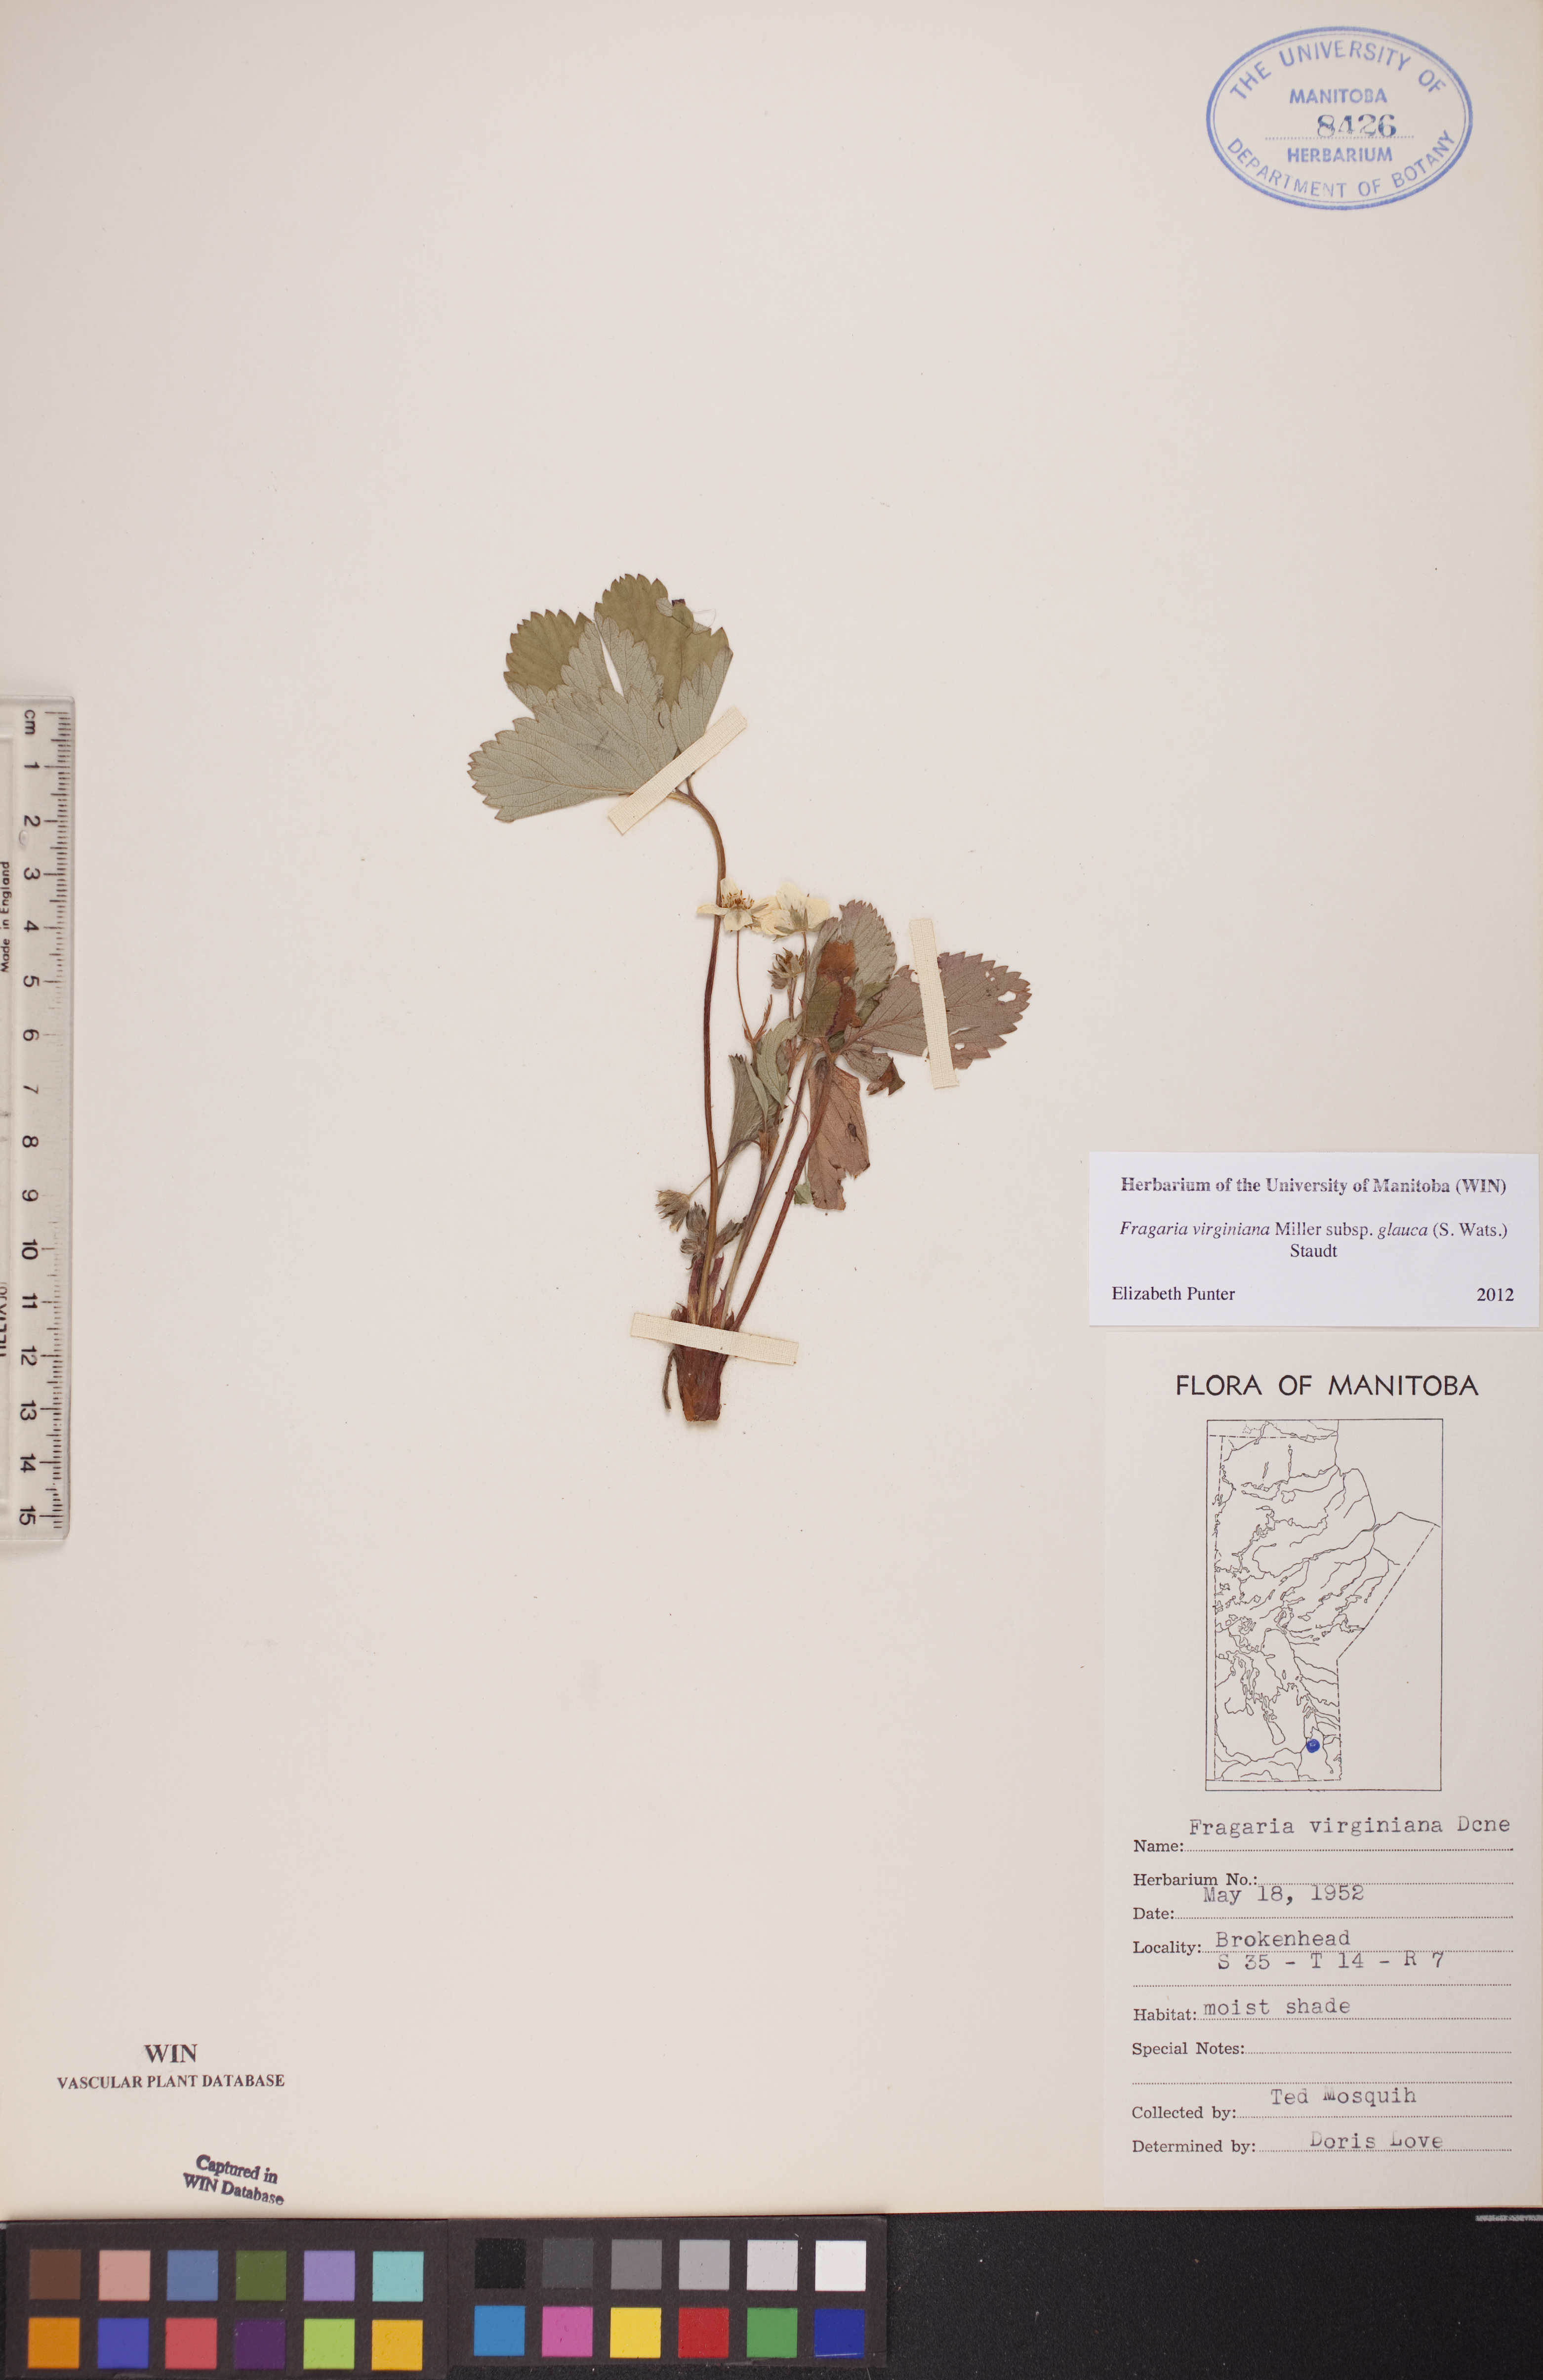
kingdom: Plantae
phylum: Tracheophyta
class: Magnoliopsida
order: Rosales
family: Rosaceae
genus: Fragaria
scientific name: Fragaria virginiana
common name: Thickleaved wild strawberry
